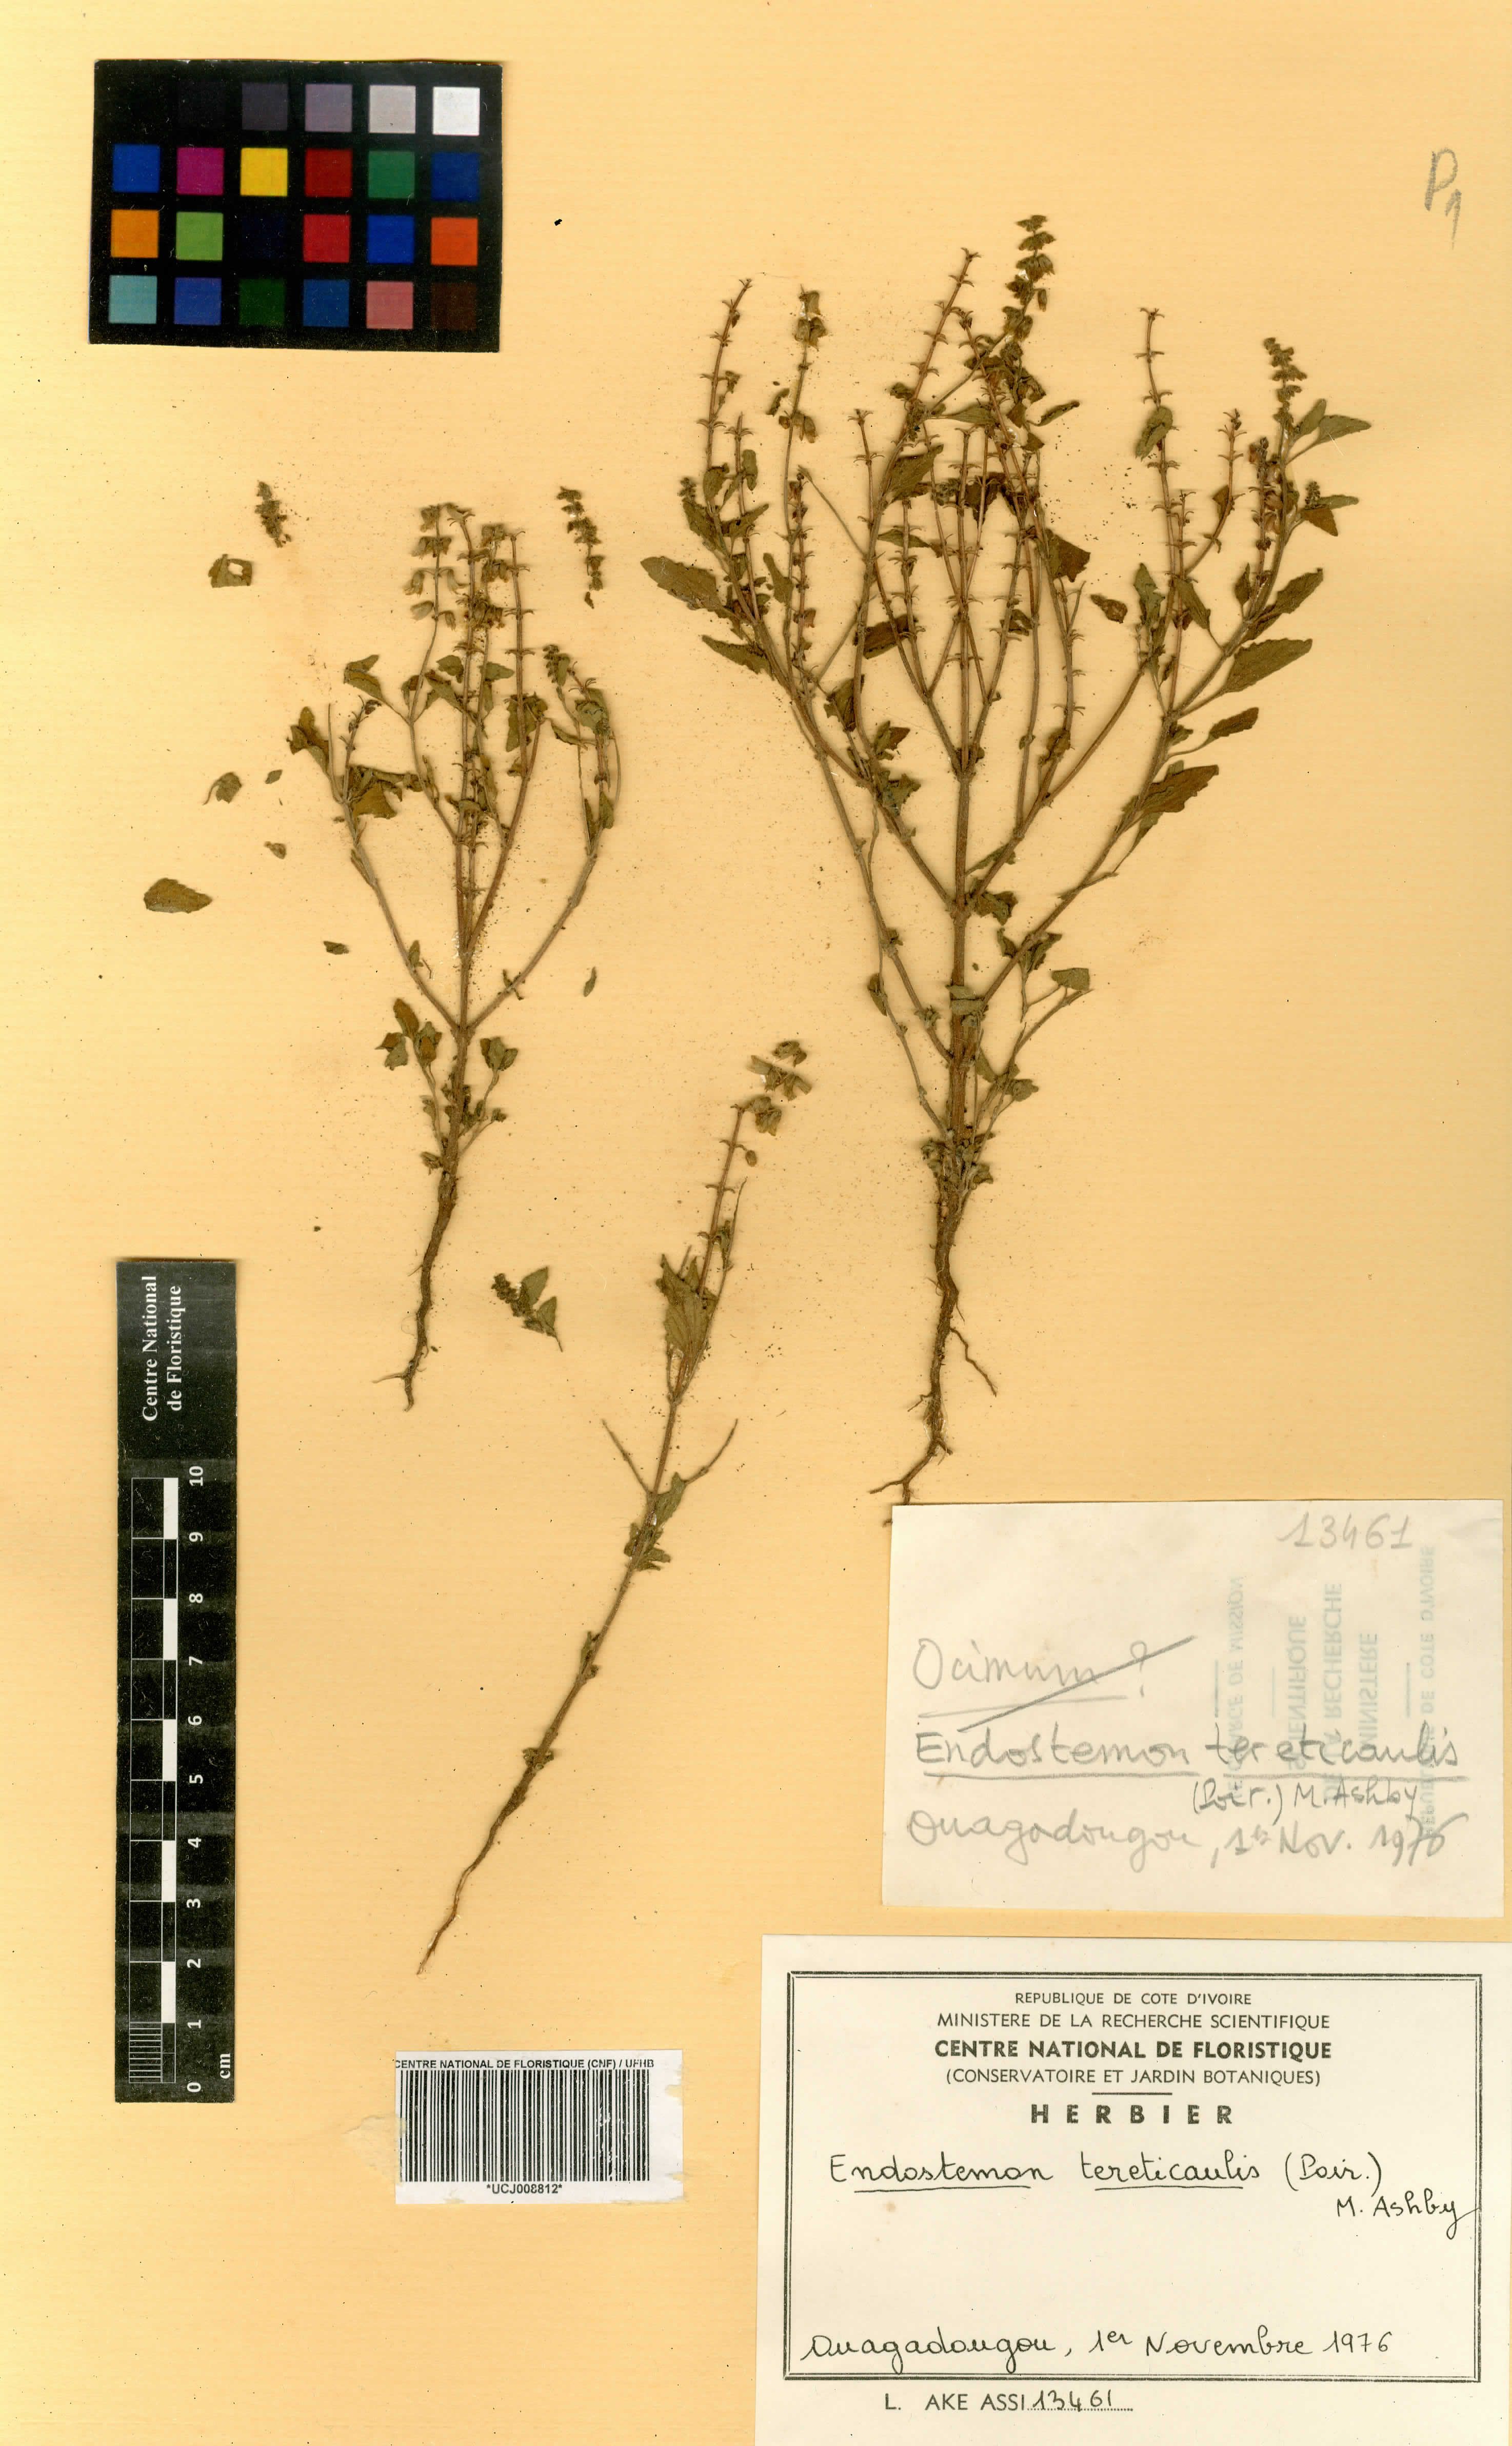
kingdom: Plantae
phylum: Tracheophyta
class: Magnoliopsida
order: Lamiales
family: Lamiaceae
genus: Endostemon
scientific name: Endostemon tereticaulis
